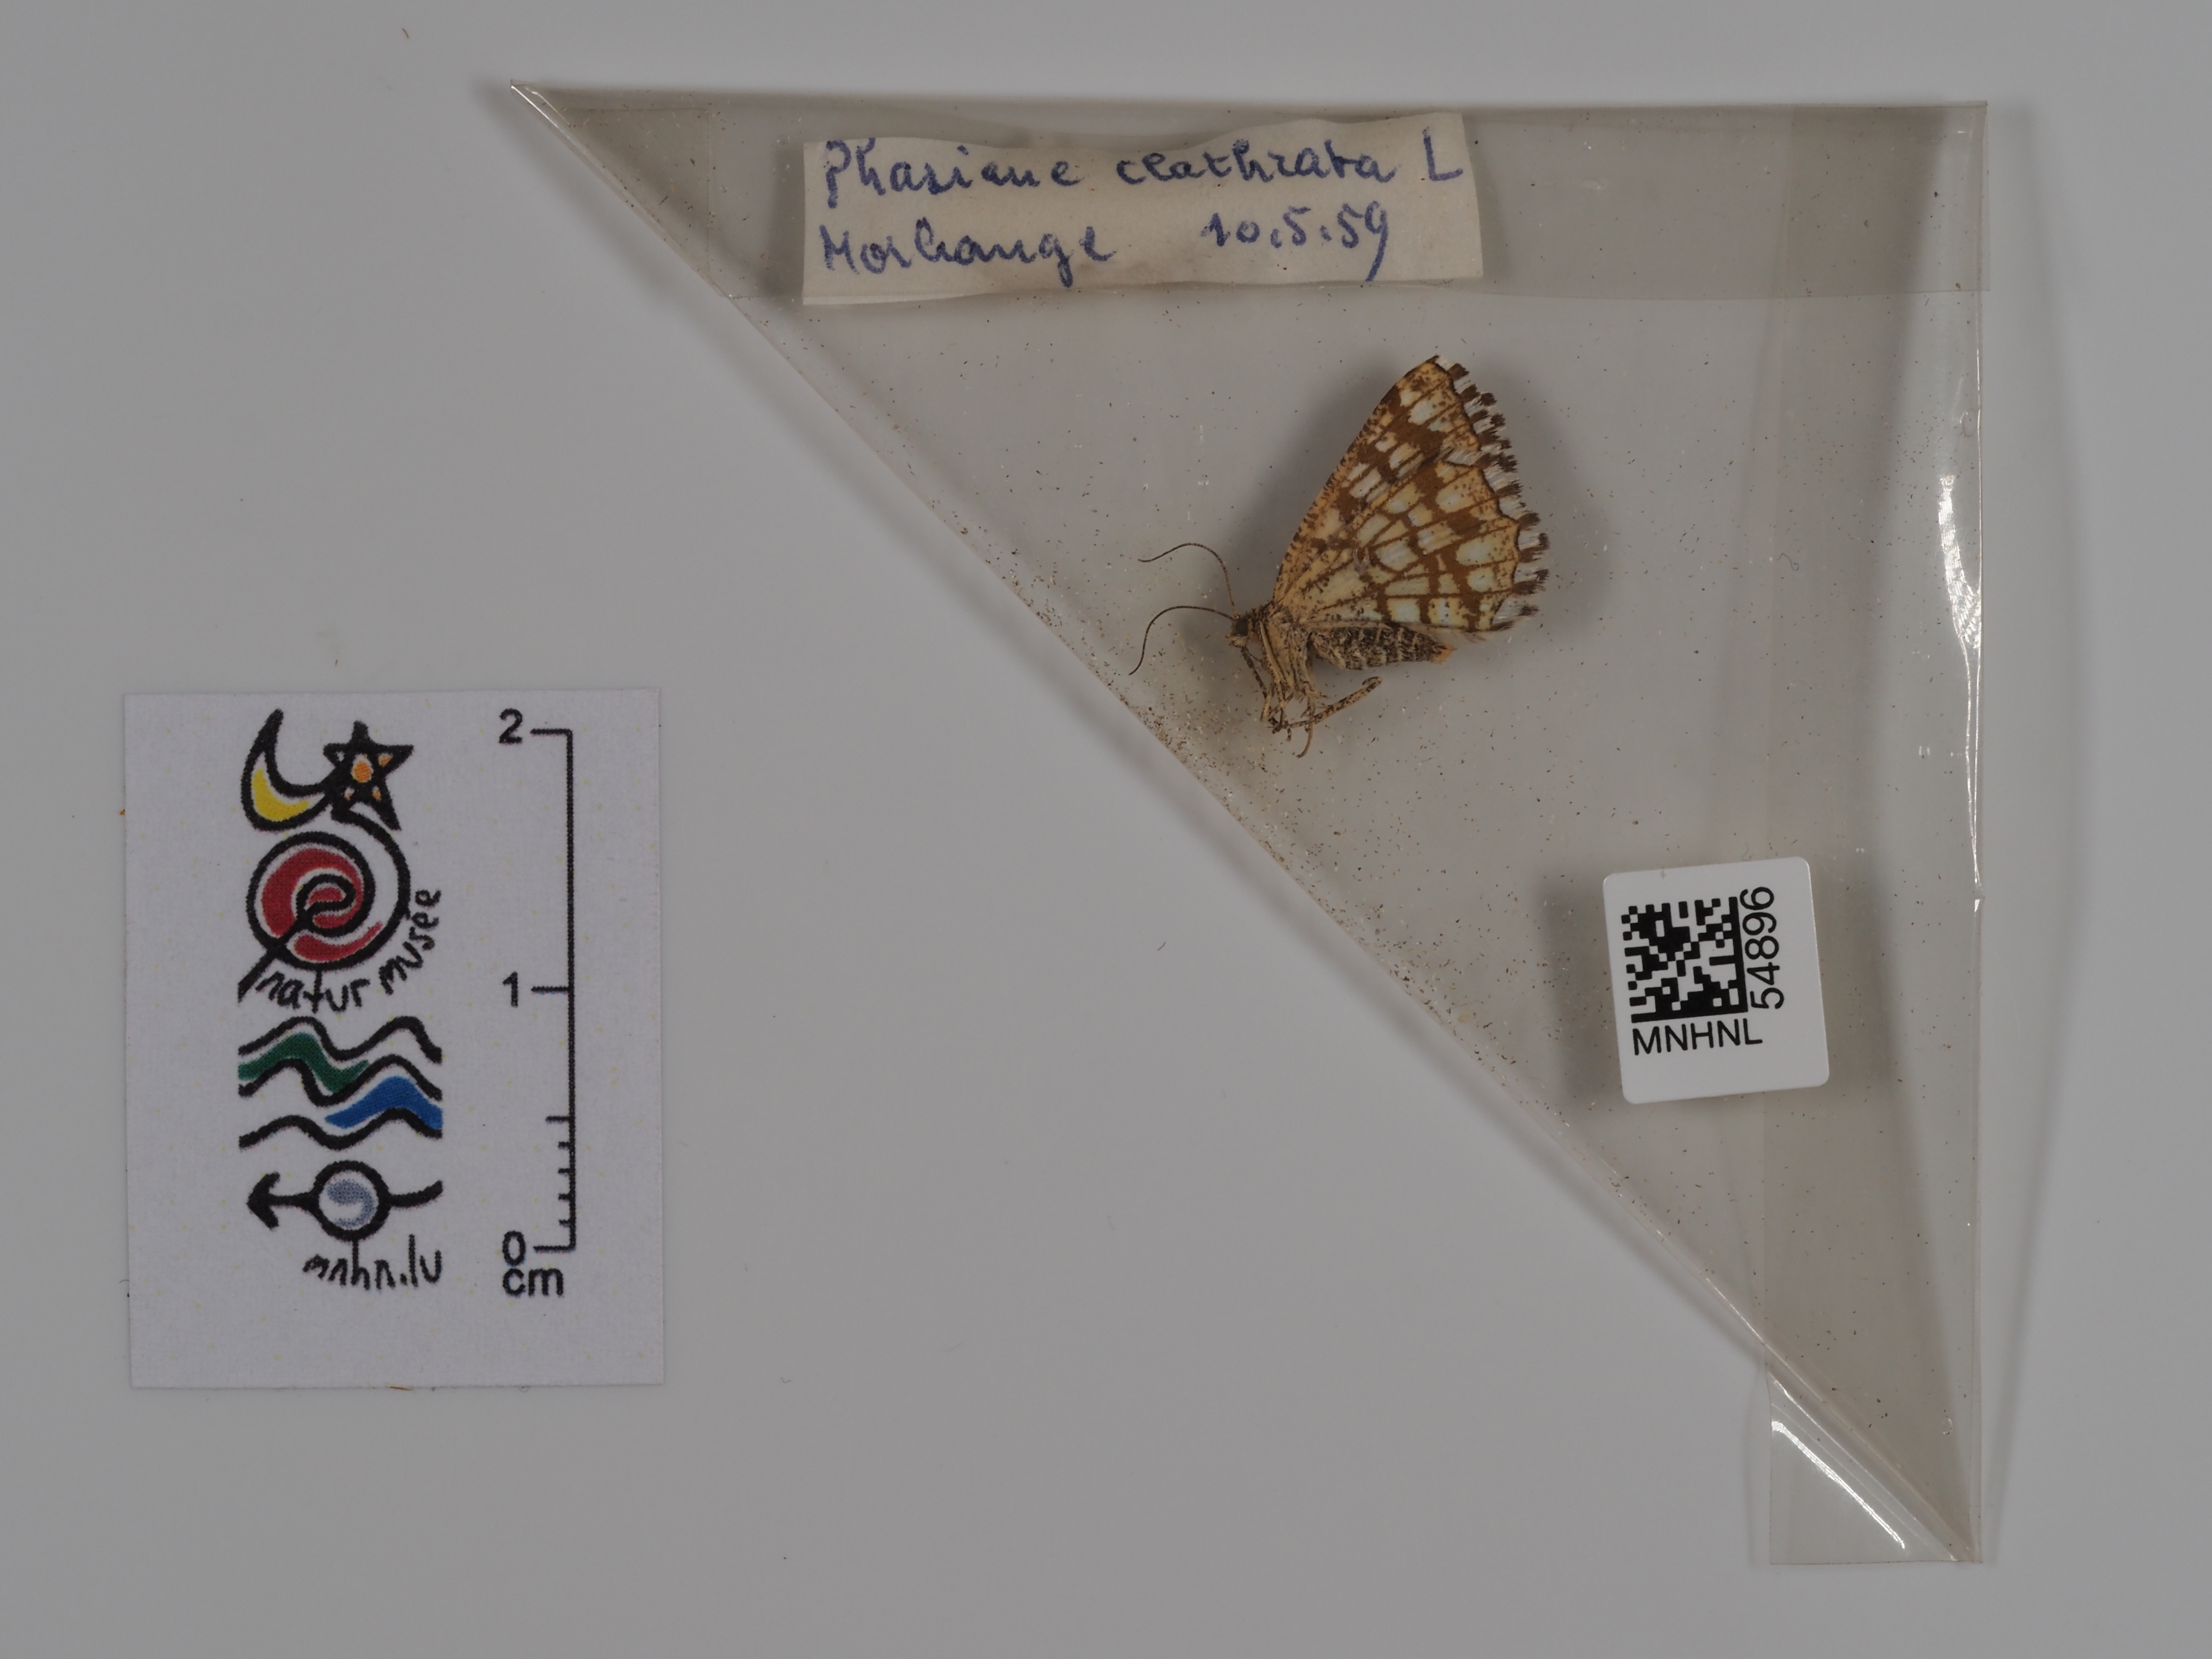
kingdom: Animalia
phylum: Arthropoda
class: Insecta
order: Lepidoptera
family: Geometridae
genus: Chiasmia
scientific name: Chiasmia clathrata
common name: Latticed heath
